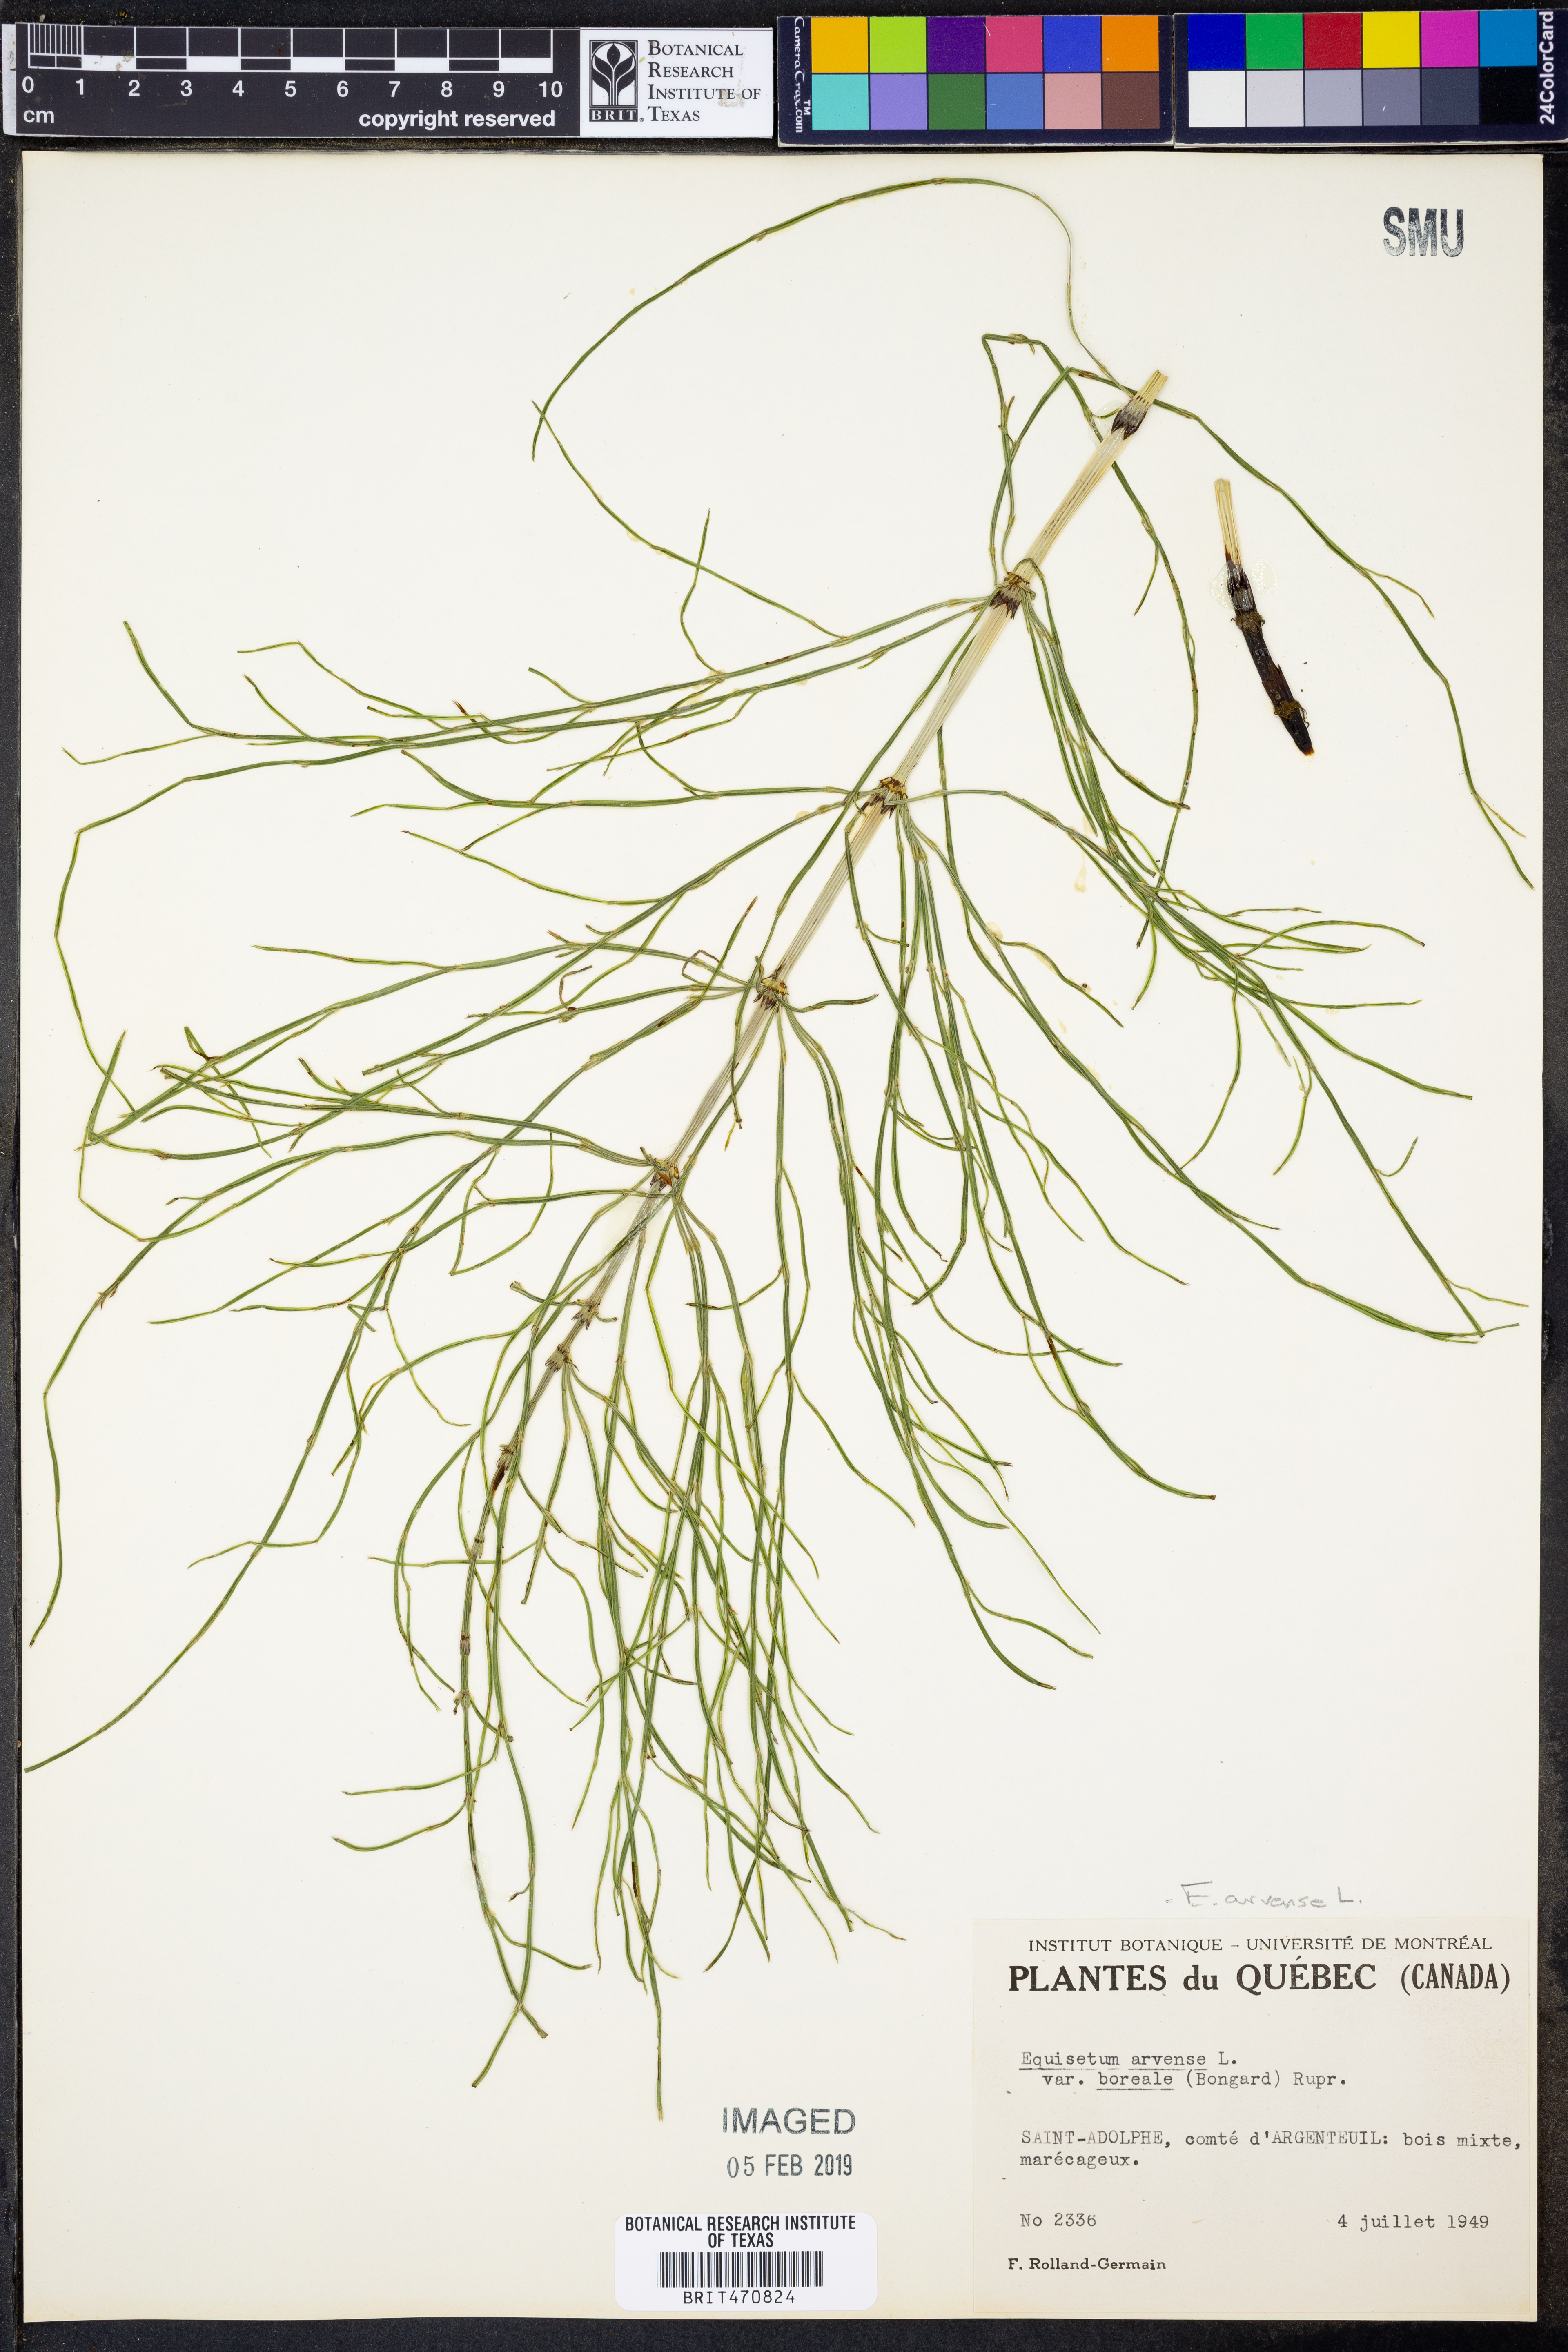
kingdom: Plantae
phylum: Tracheophyta
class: Polypodiopsida
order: Equisetales
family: Equisetaceae
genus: Equisetum
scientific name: Equisetum arvense
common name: Field horsetail
